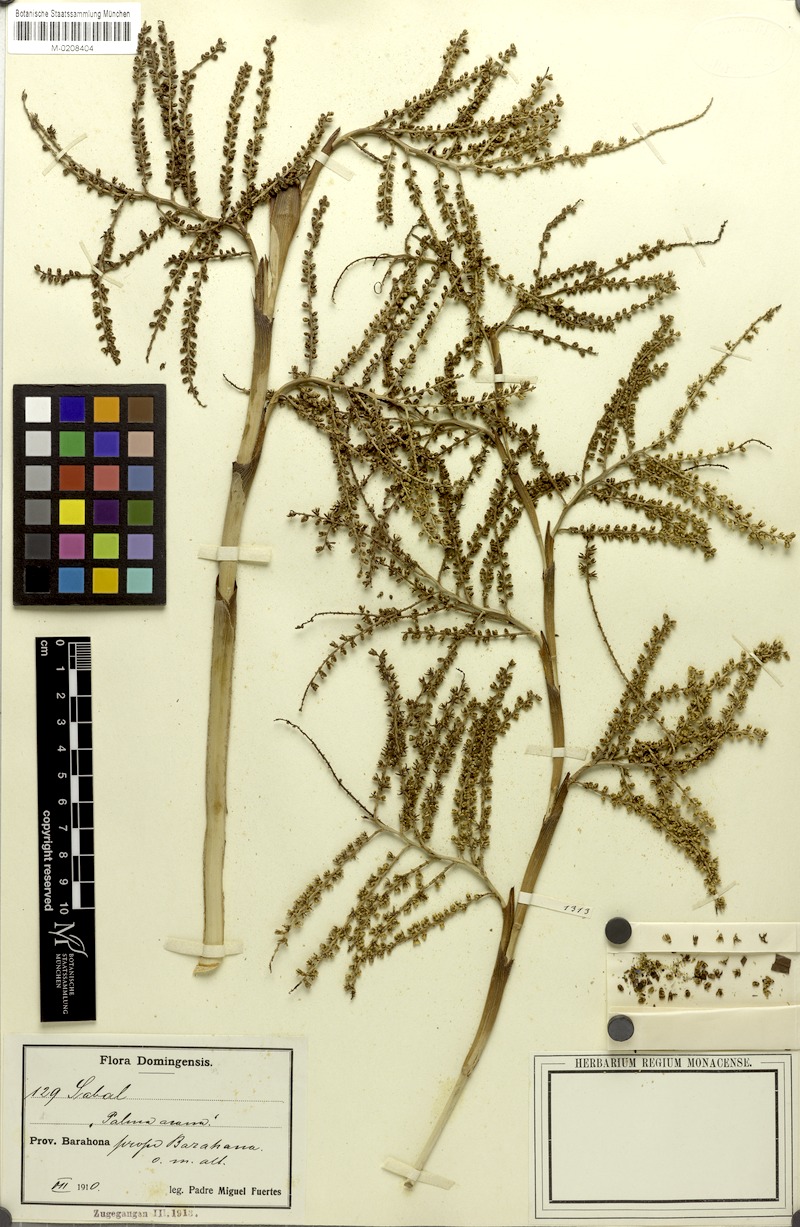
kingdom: Plantae
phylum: Tracheophyta
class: Liliopsida
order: Arecales
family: Arecaceae
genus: Sabal
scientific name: Sabal minor
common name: Dwarf palmetto
